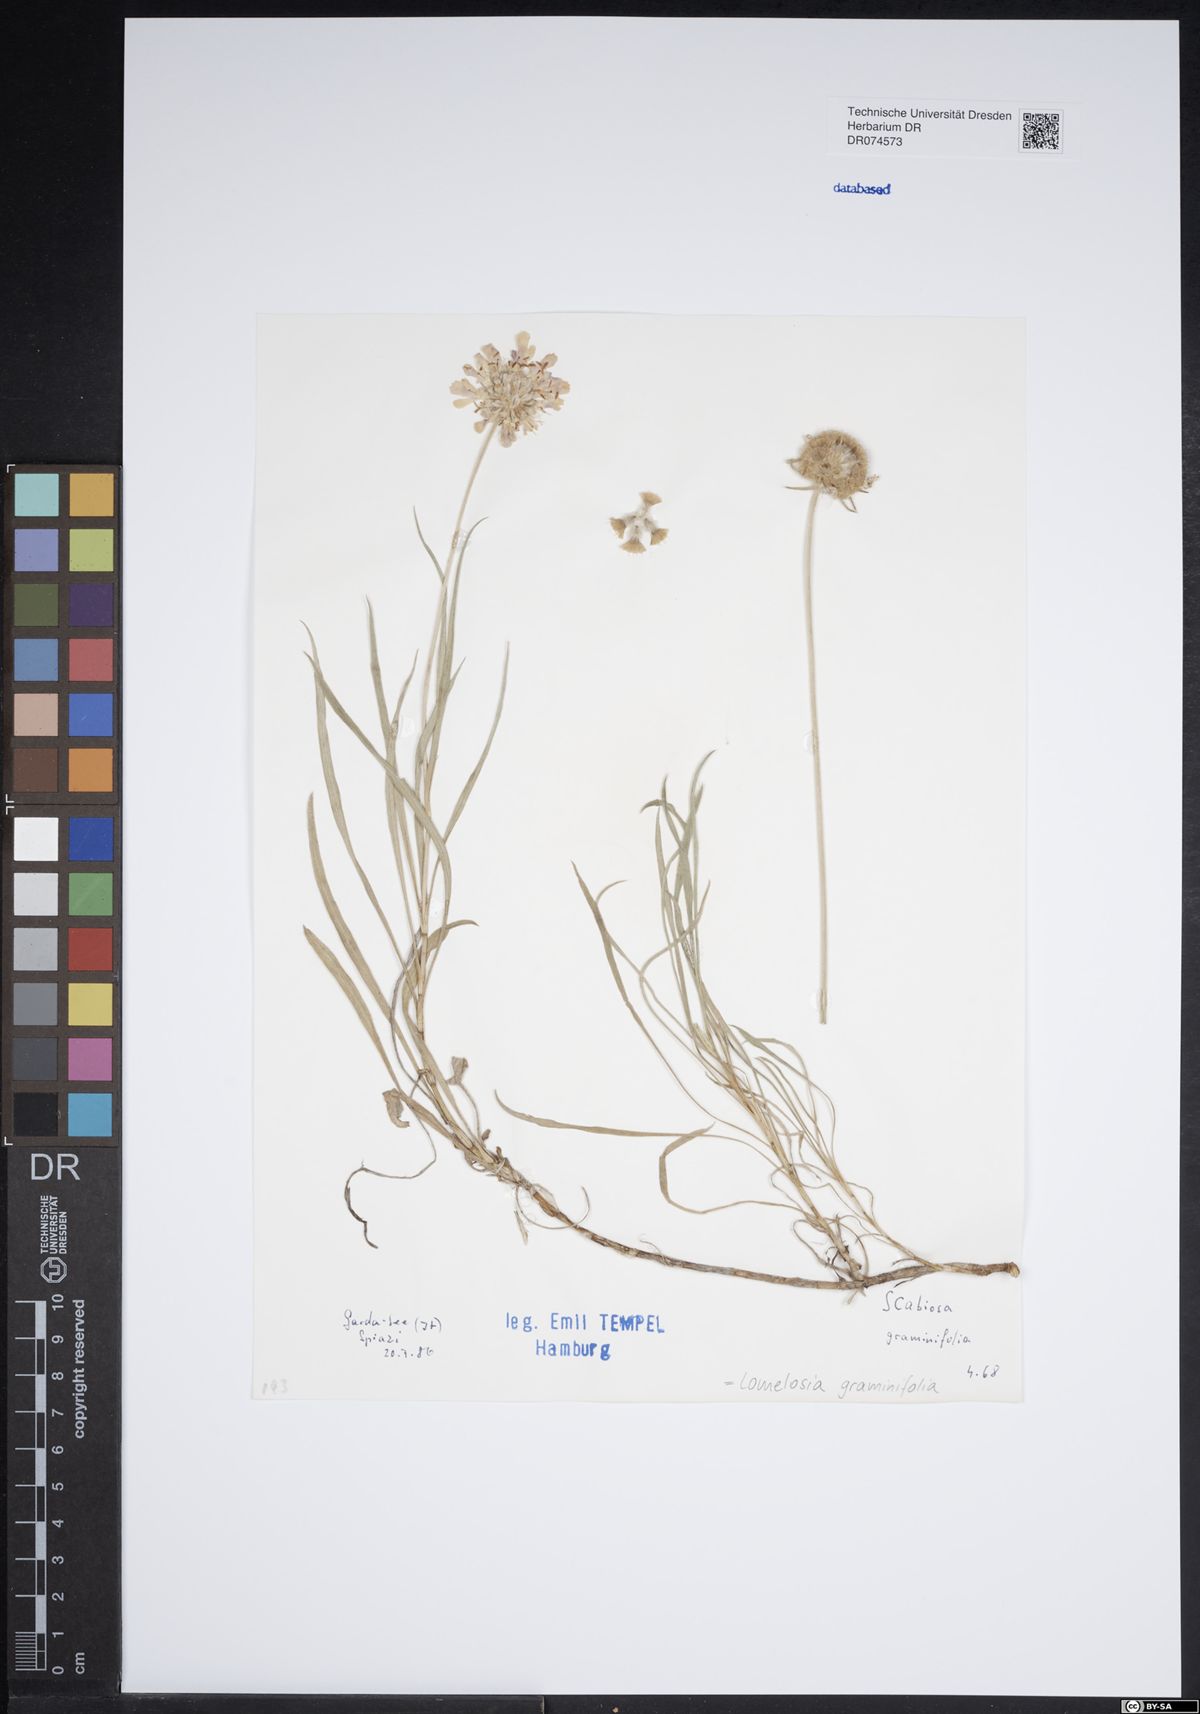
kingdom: Plantae
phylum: Tracheophyta
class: Magnoliopsida
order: Dipsacales
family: Caprifoliaceae
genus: Lomelosia
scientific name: Lomelosia graminifolia
